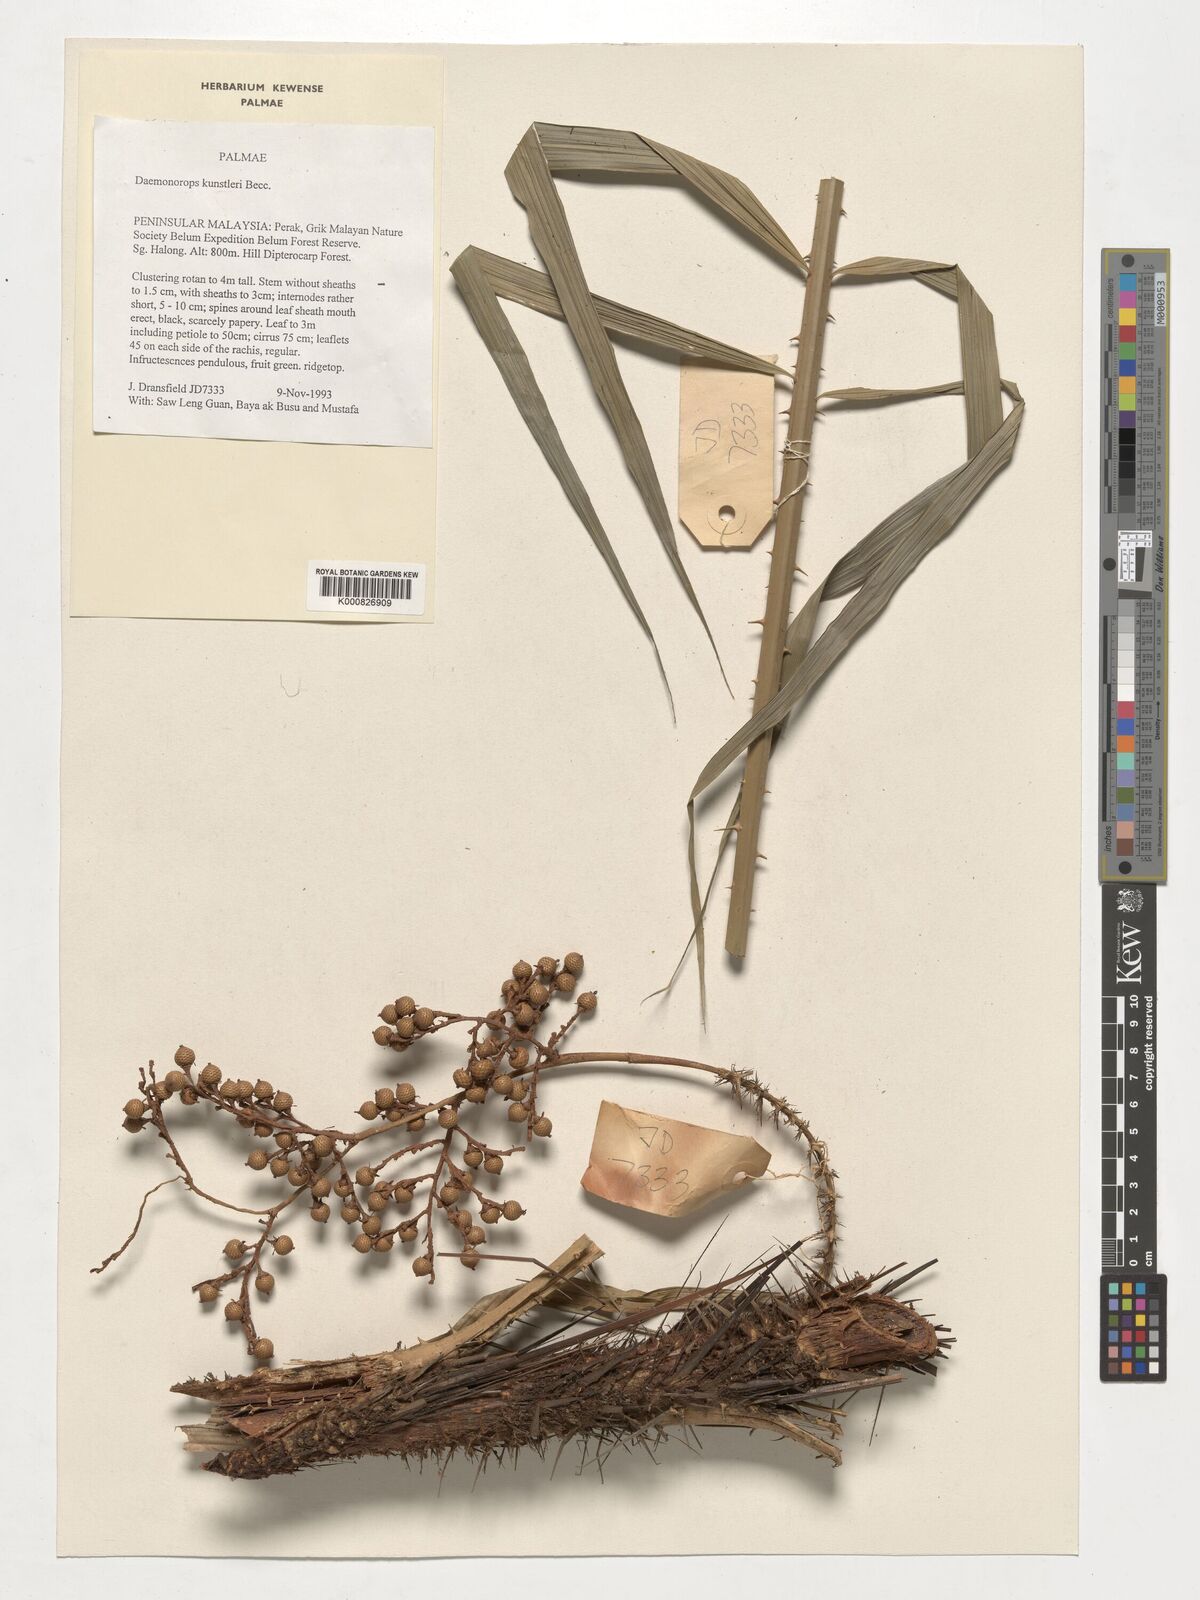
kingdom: Plantae
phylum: Tracheophyta
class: Liliopsida
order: Arecales
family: Arecaceae
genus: Calamus
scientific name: Calamus kunstleri
